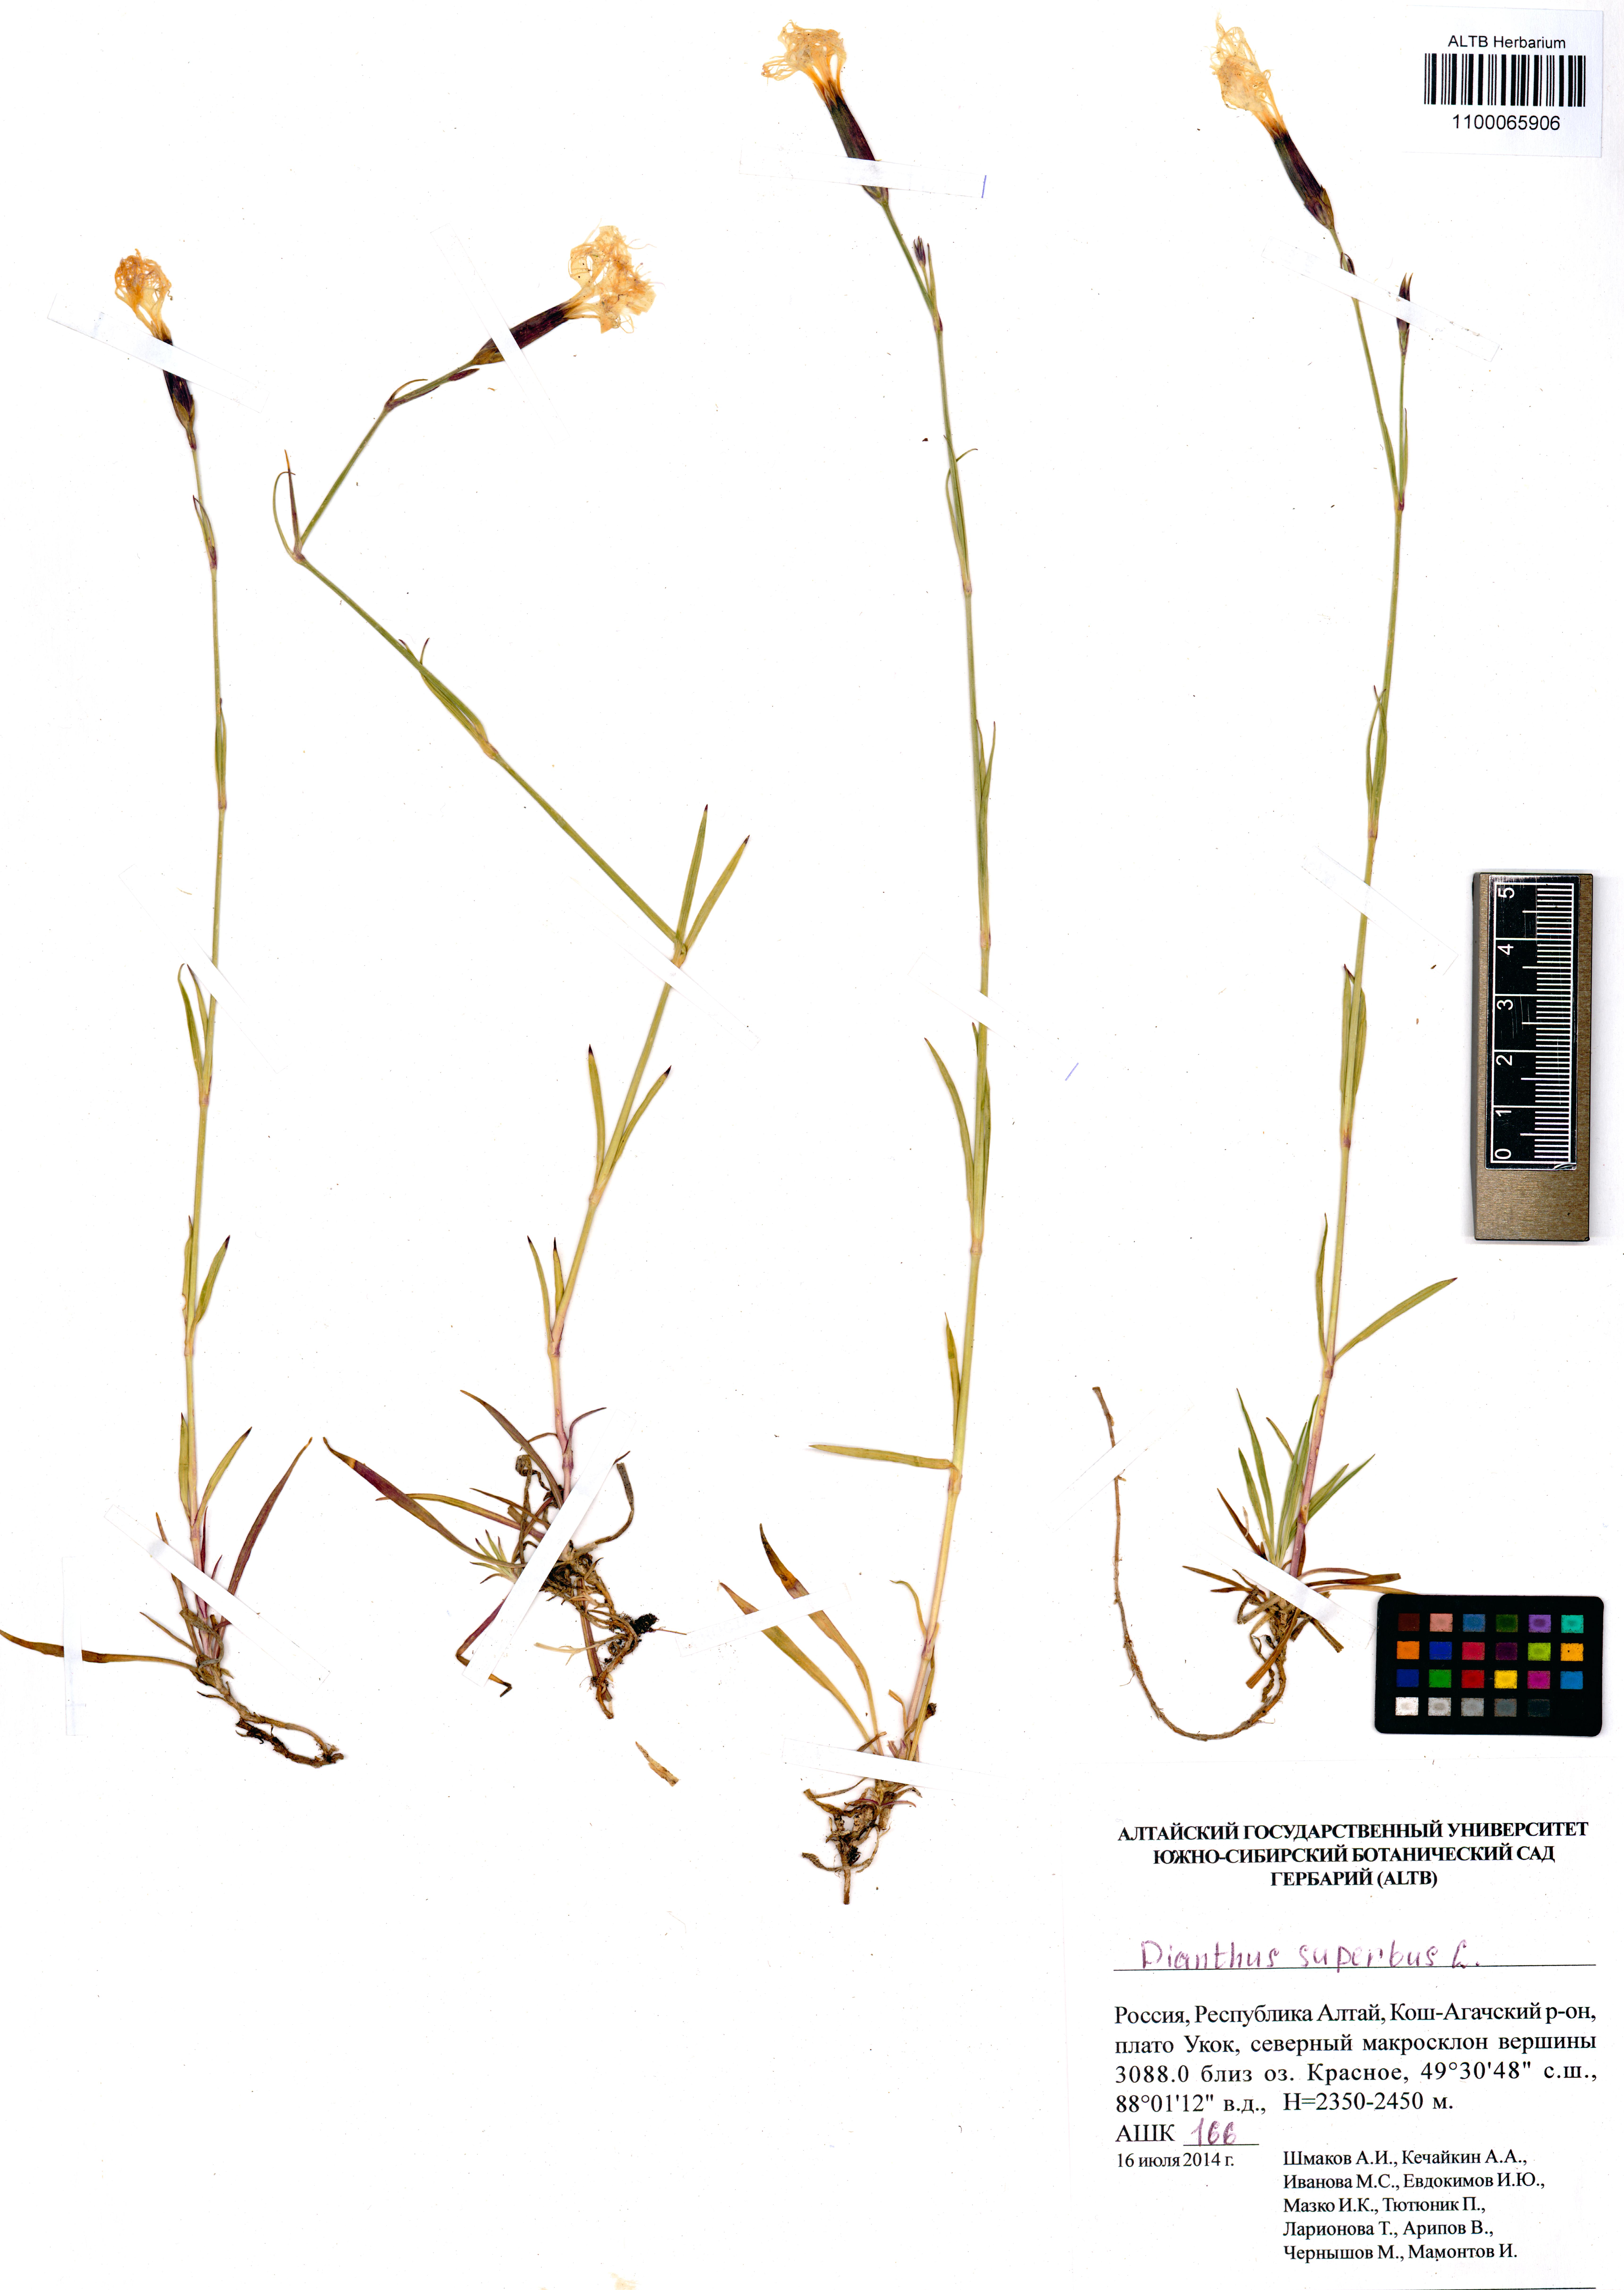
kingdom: Plantae
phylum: Tracheophyta
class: Magnoliopsida
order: Caryophyllales
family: Caryophyllaceae
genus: Dianthus
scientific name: Dianthus superbus
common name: Fringed pink
